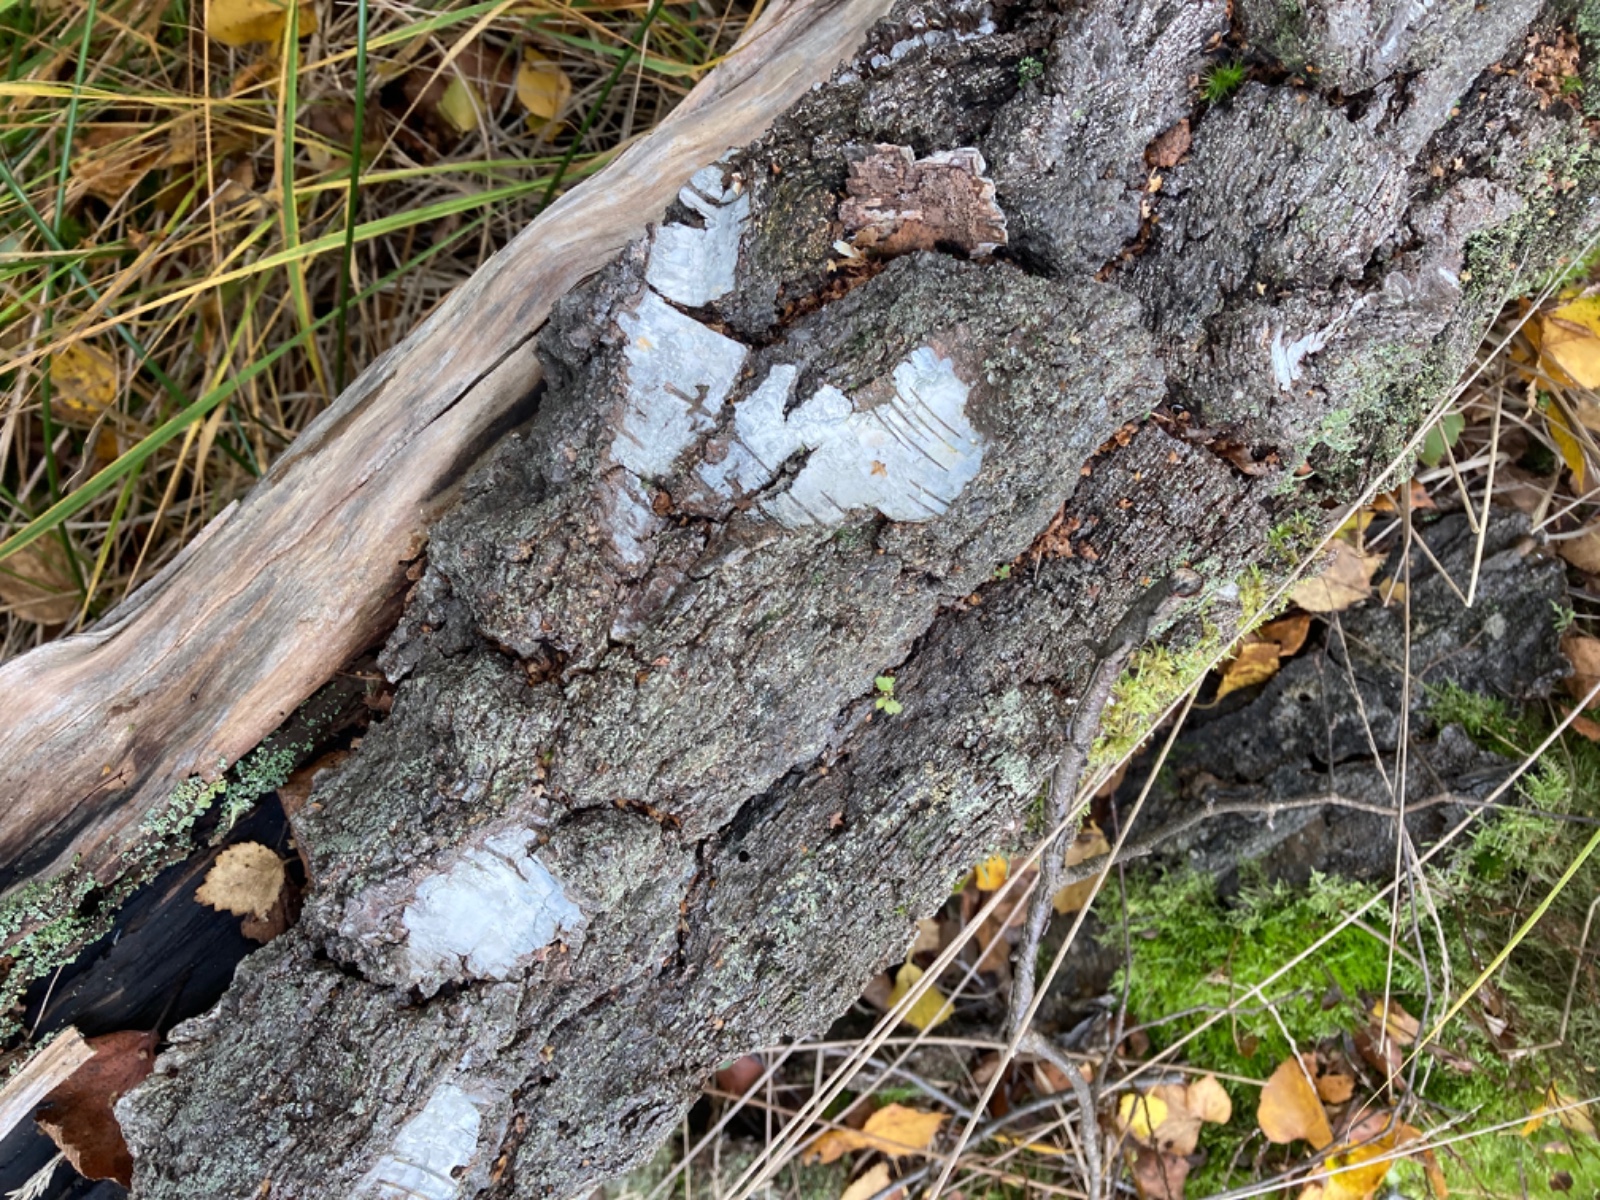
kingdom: Fungi
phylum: Basidiomycota
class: Agaricomycetes
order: Agaricales
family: Hymenogastraceae
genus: Gymnopilus
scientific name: Gymnopilus penetrans
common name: plettet flammehat
